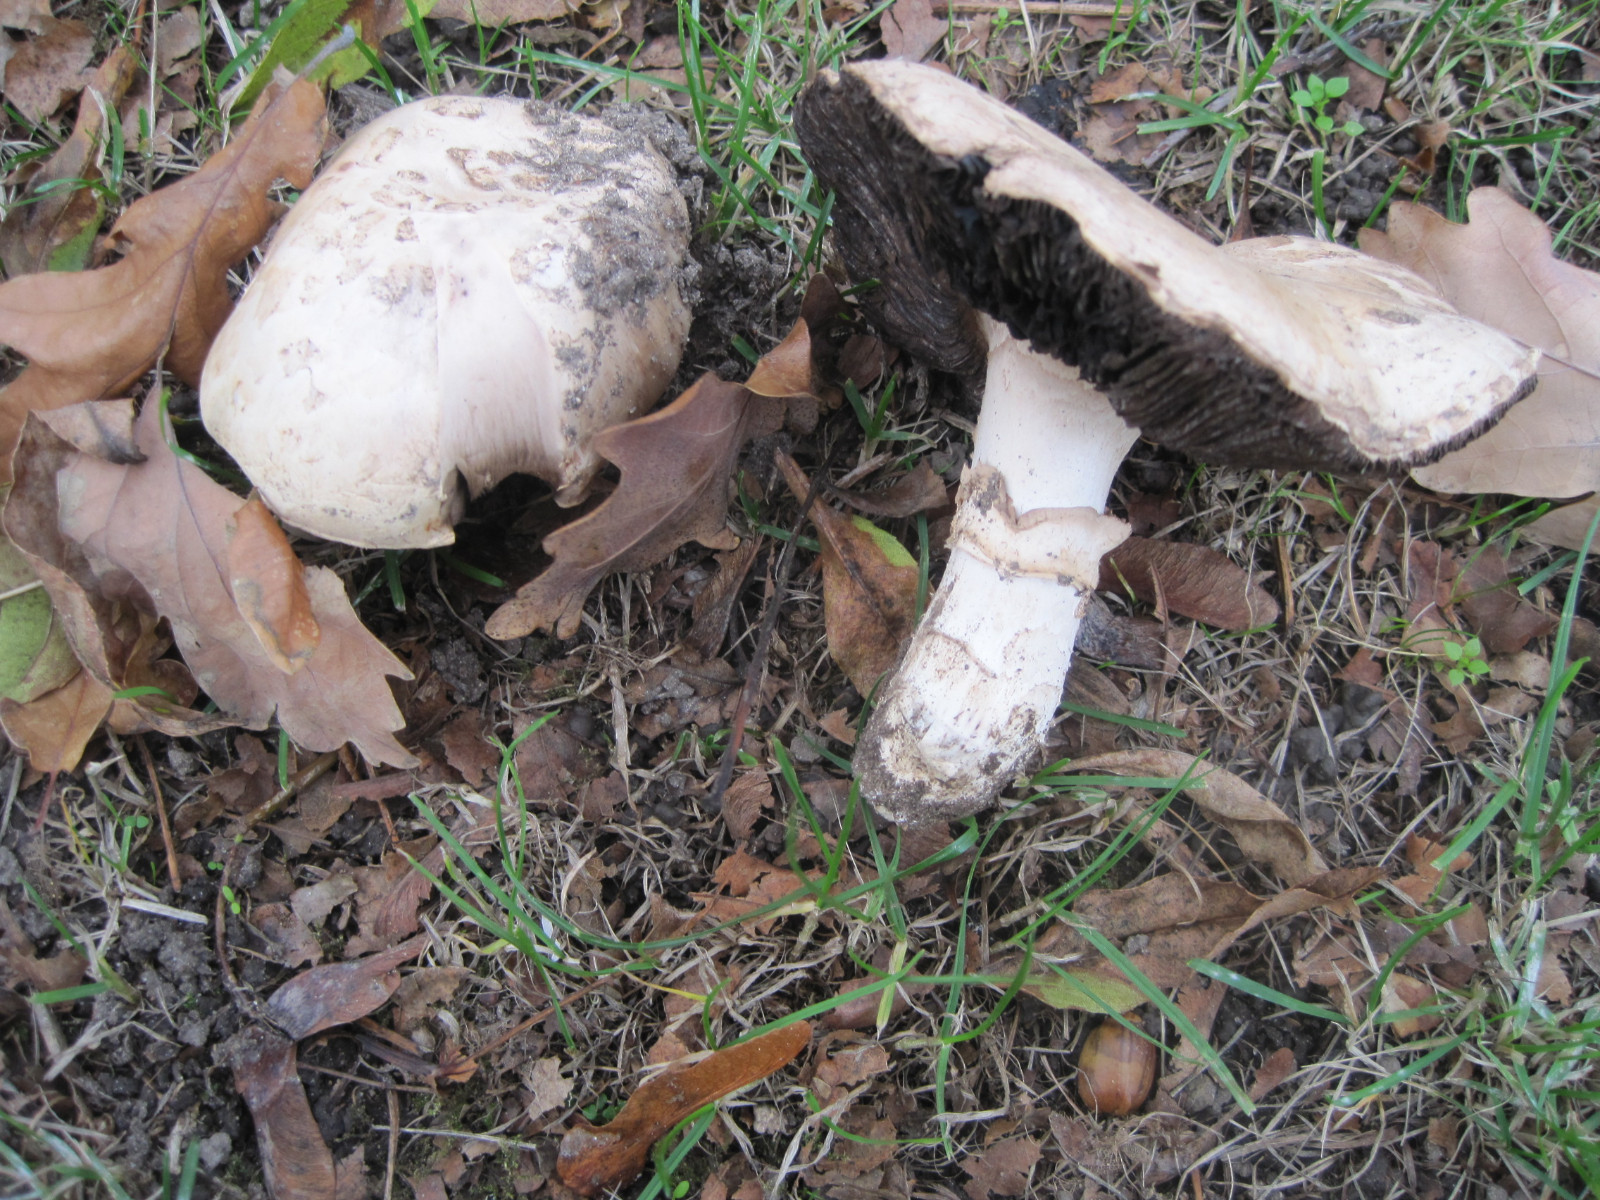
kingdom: Fungi
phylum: Basidiomycota
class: Agaricomycetes
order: Agaricales
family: Agaricaceae
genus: Agaricus
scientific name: Agaricus bitorquis
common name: vej-champignon
